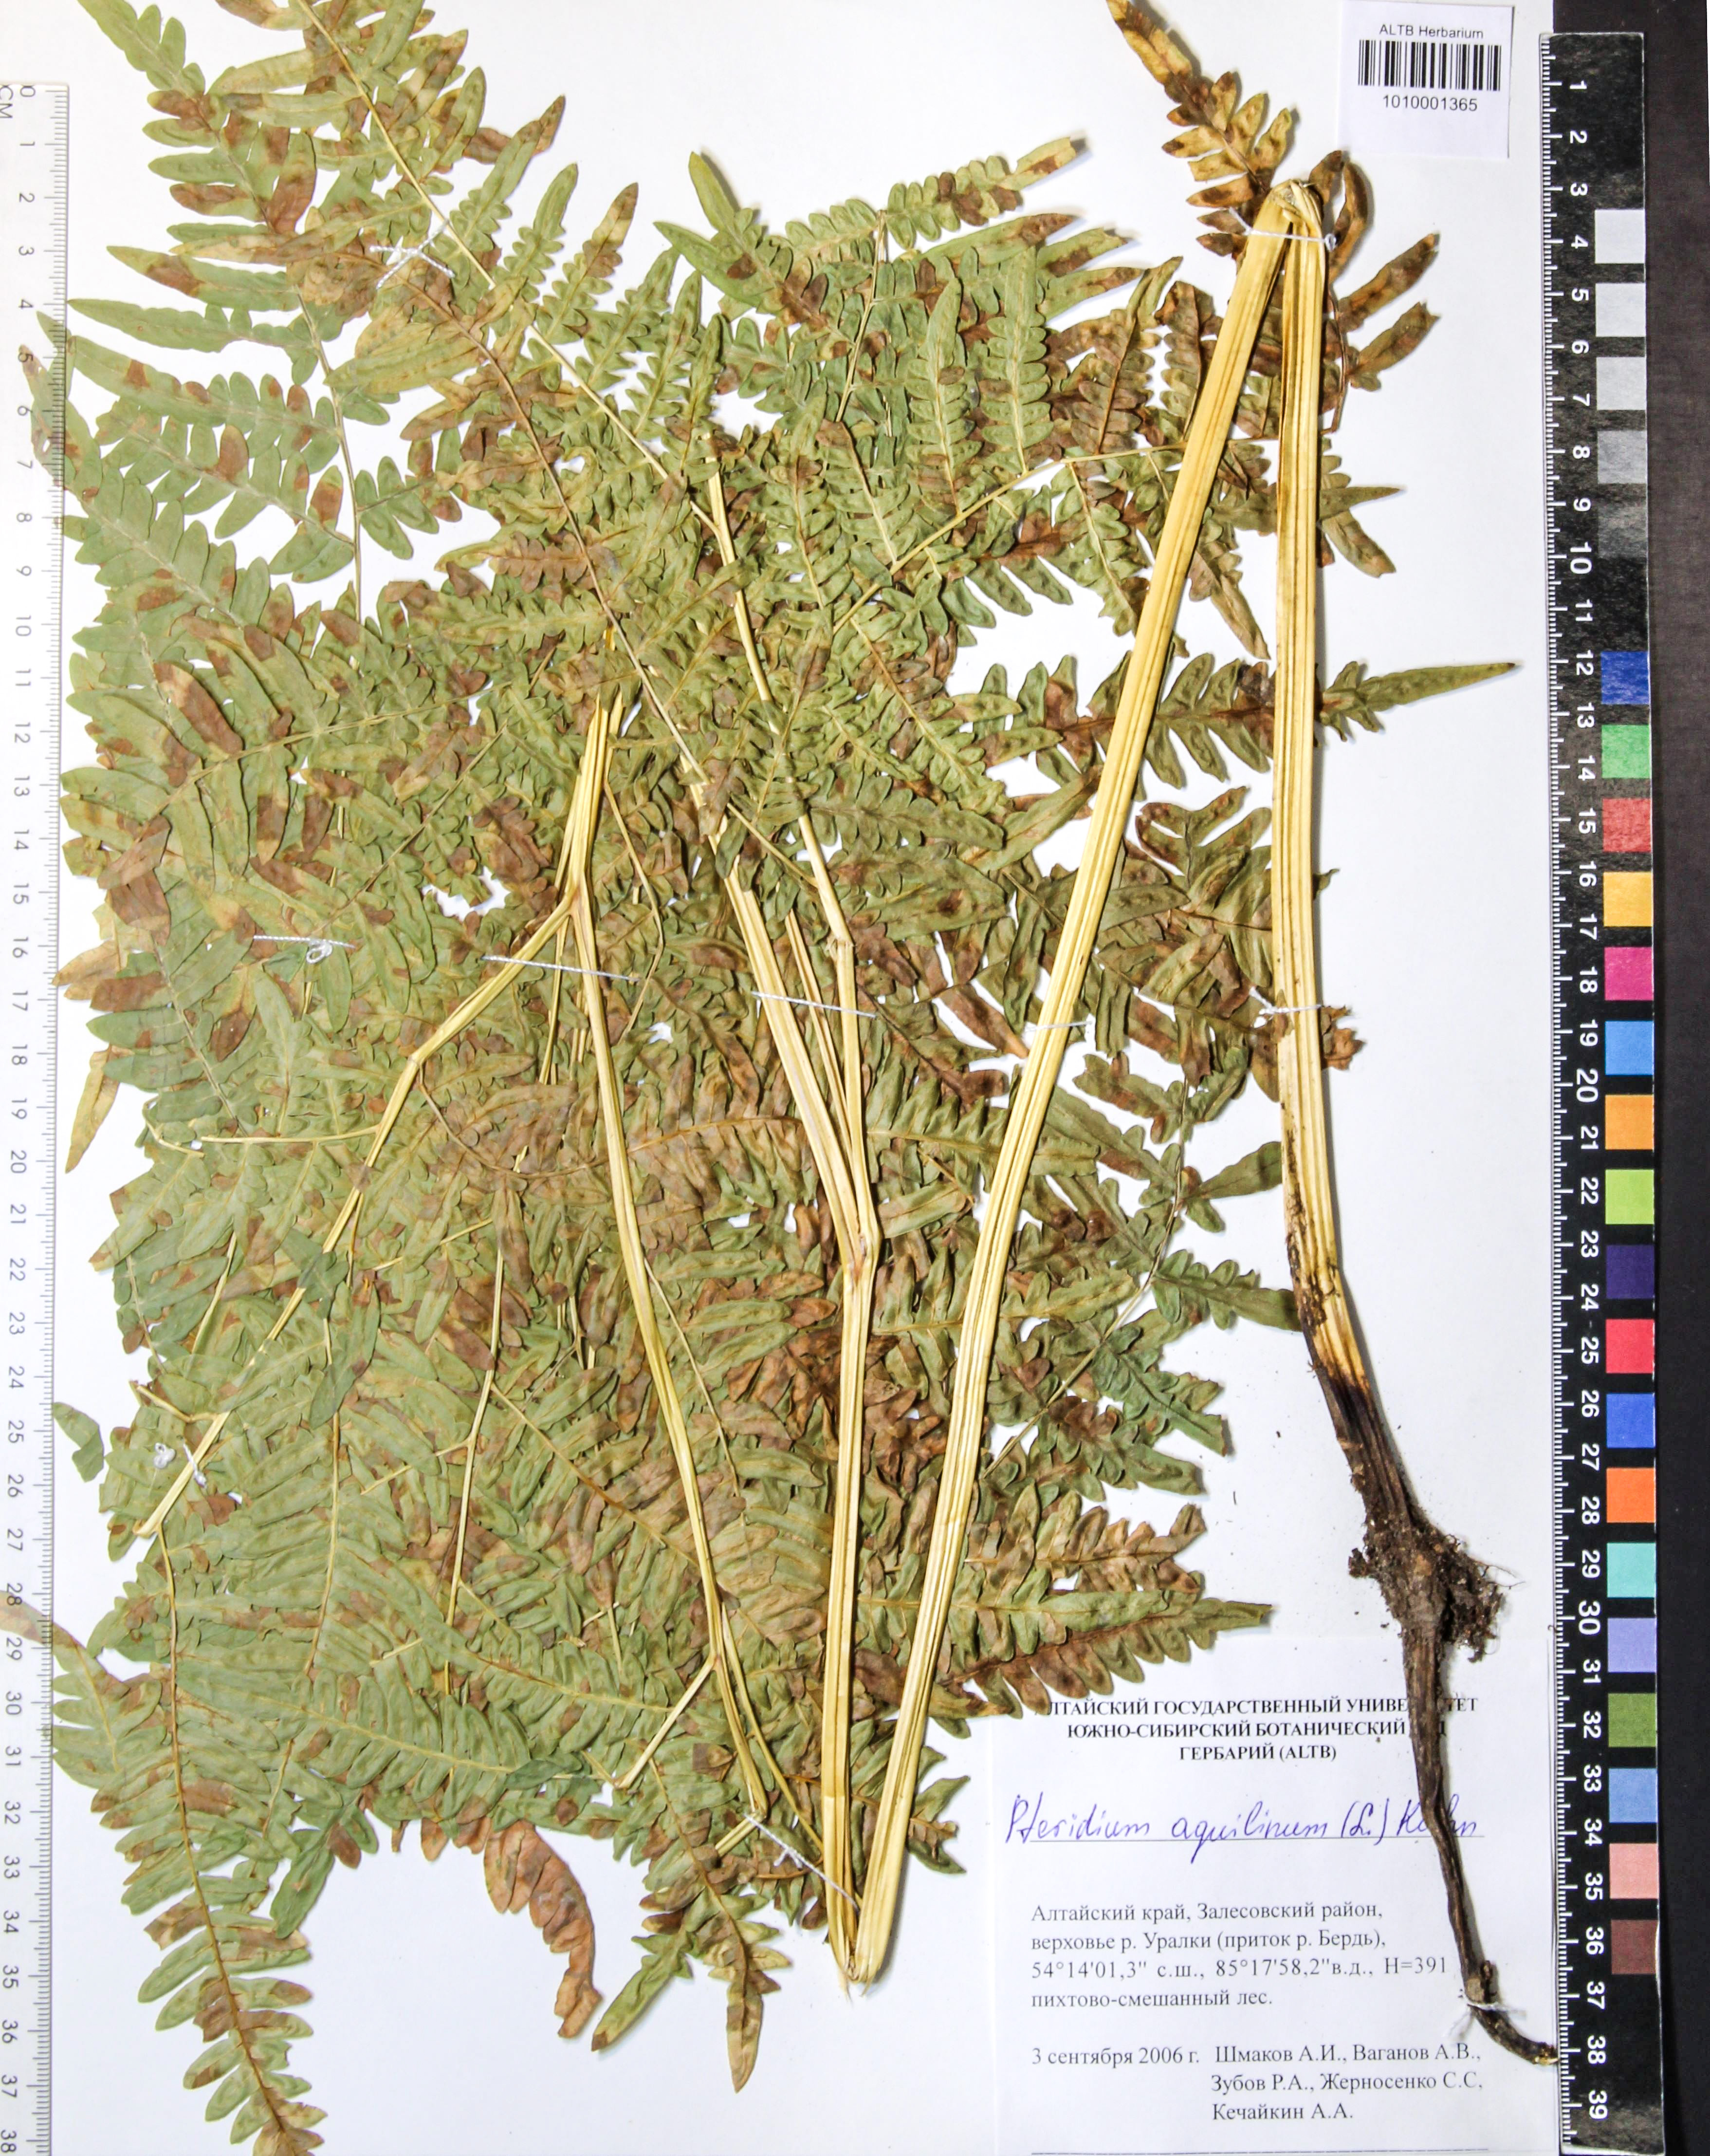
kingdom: Plantae
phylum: Tracheophyta
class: Polypodiopsida
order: Polypodiales
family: Dennstaedtiaceae
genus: Pteridium
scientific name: Pteridium aquilinum
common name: Bracken
